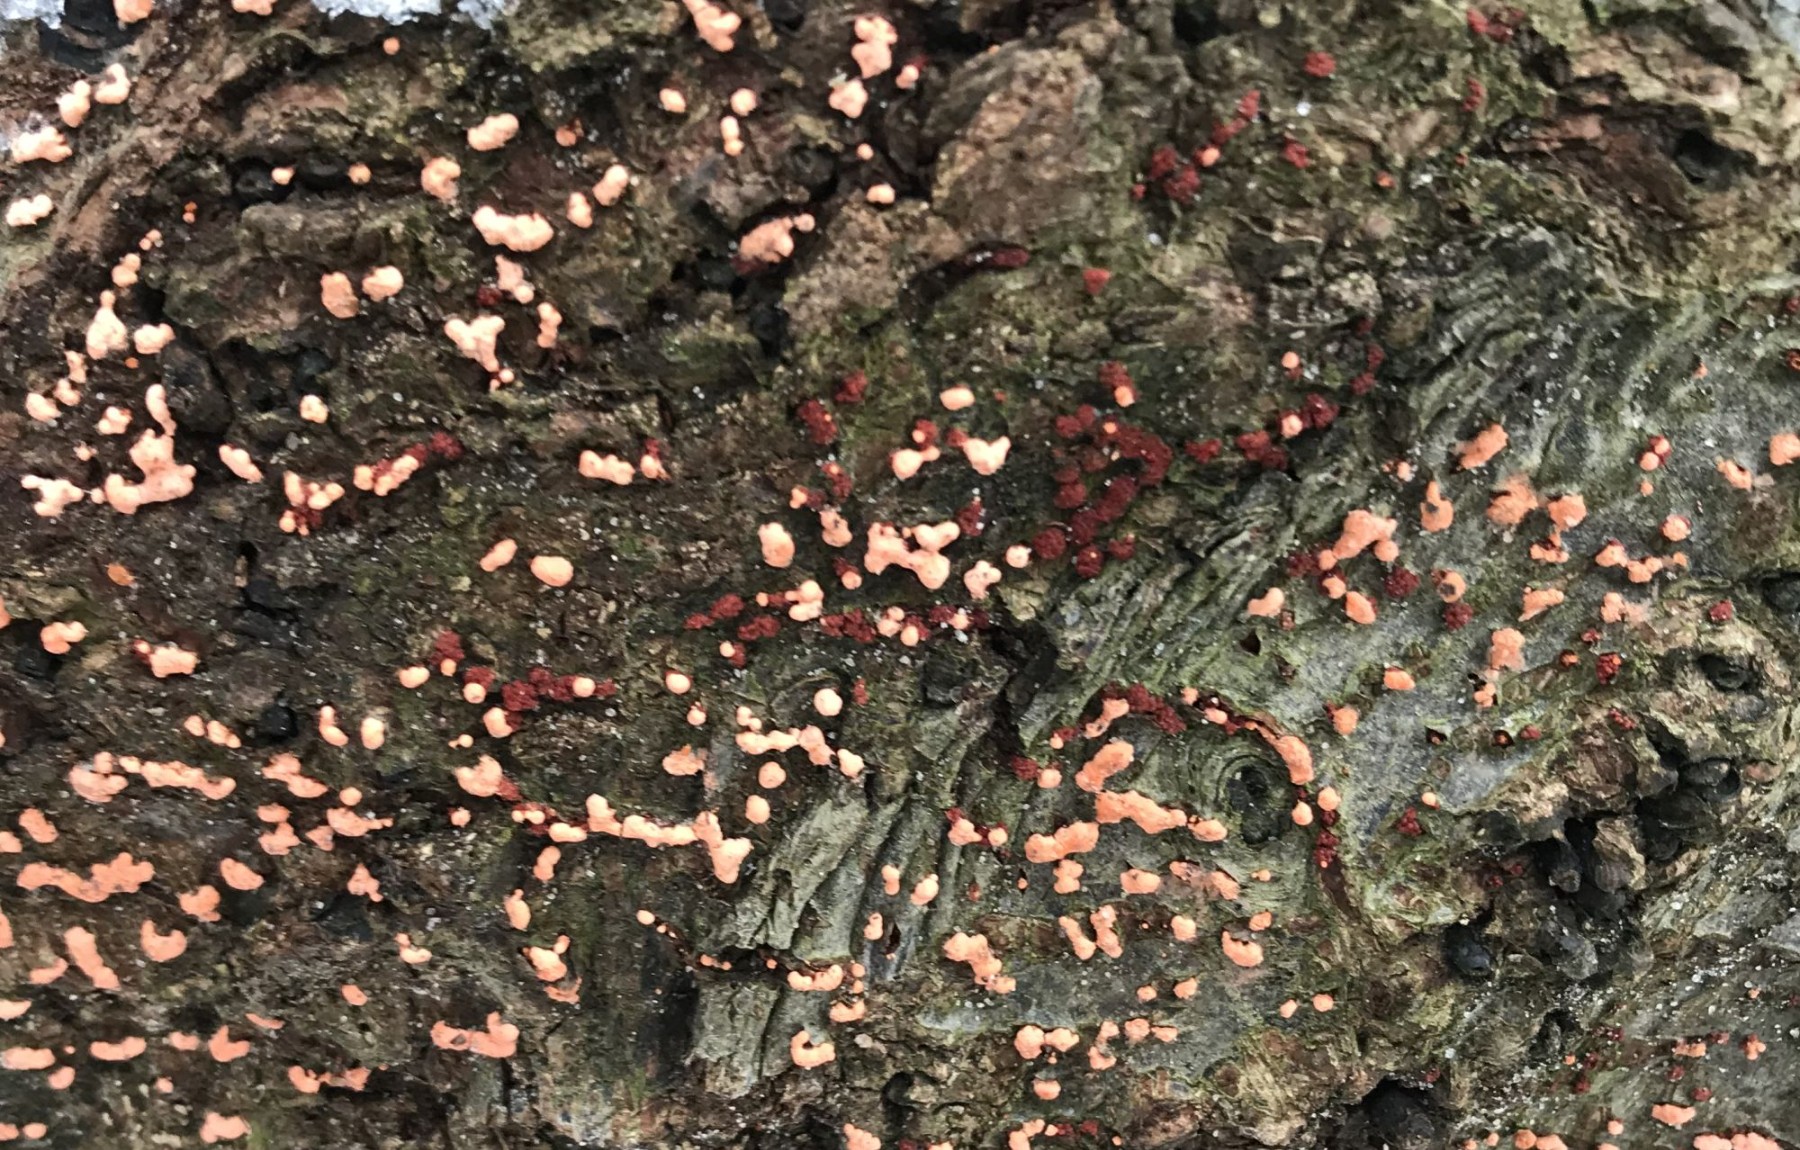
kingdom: Fungi
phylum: Ascomycota
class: Sordariomycetes
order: Hypocreales
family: Nectriaceae
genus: Nectria
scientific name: Nectria cinnabarina
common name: almindelig cinnobersvamp
